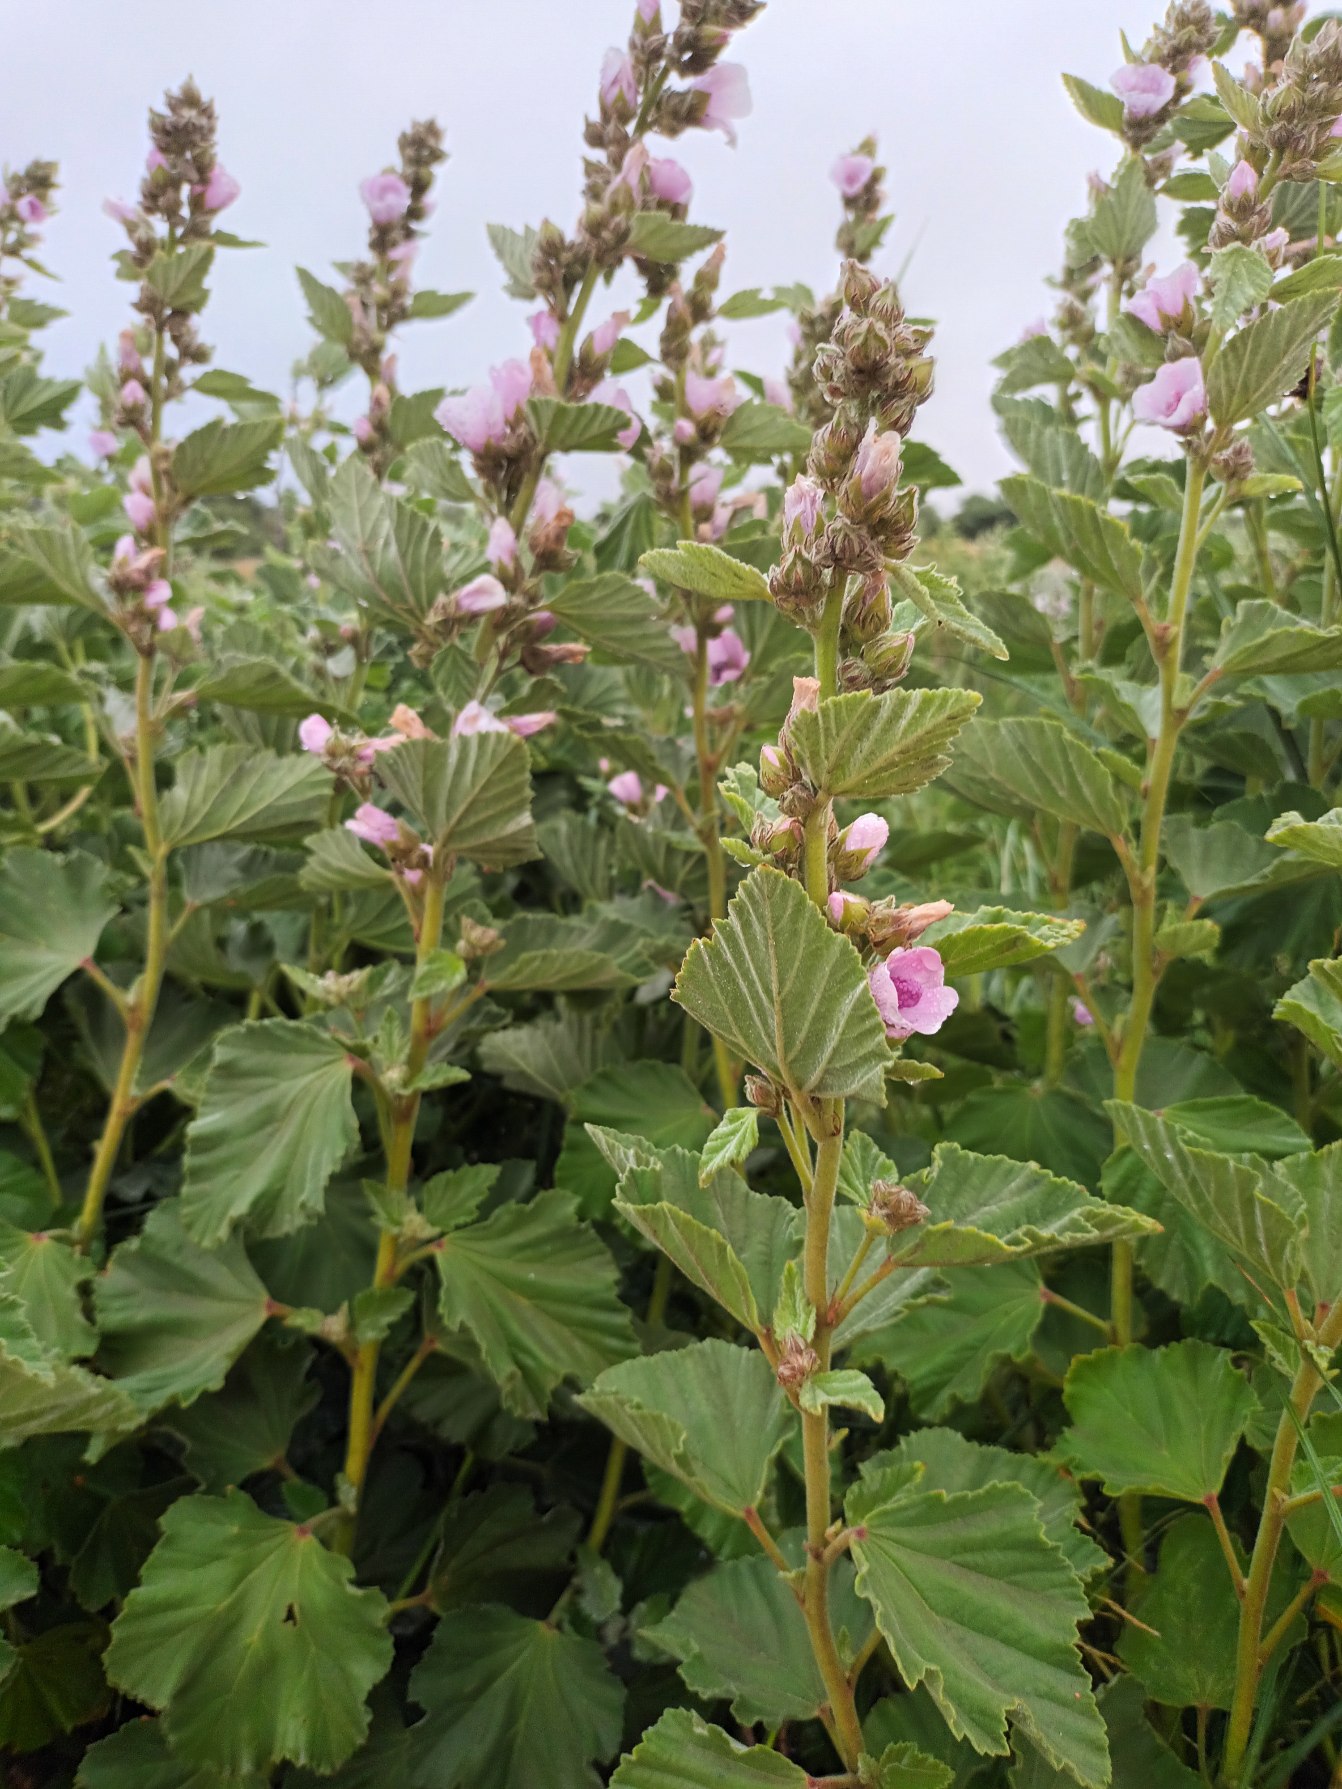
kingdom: Plantae
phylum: Tracheophyta
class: Magnoliopsida
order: Malvales
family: Malvaceae
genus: Althaea
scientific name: Althaea officinalis
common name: Lægestokrose
